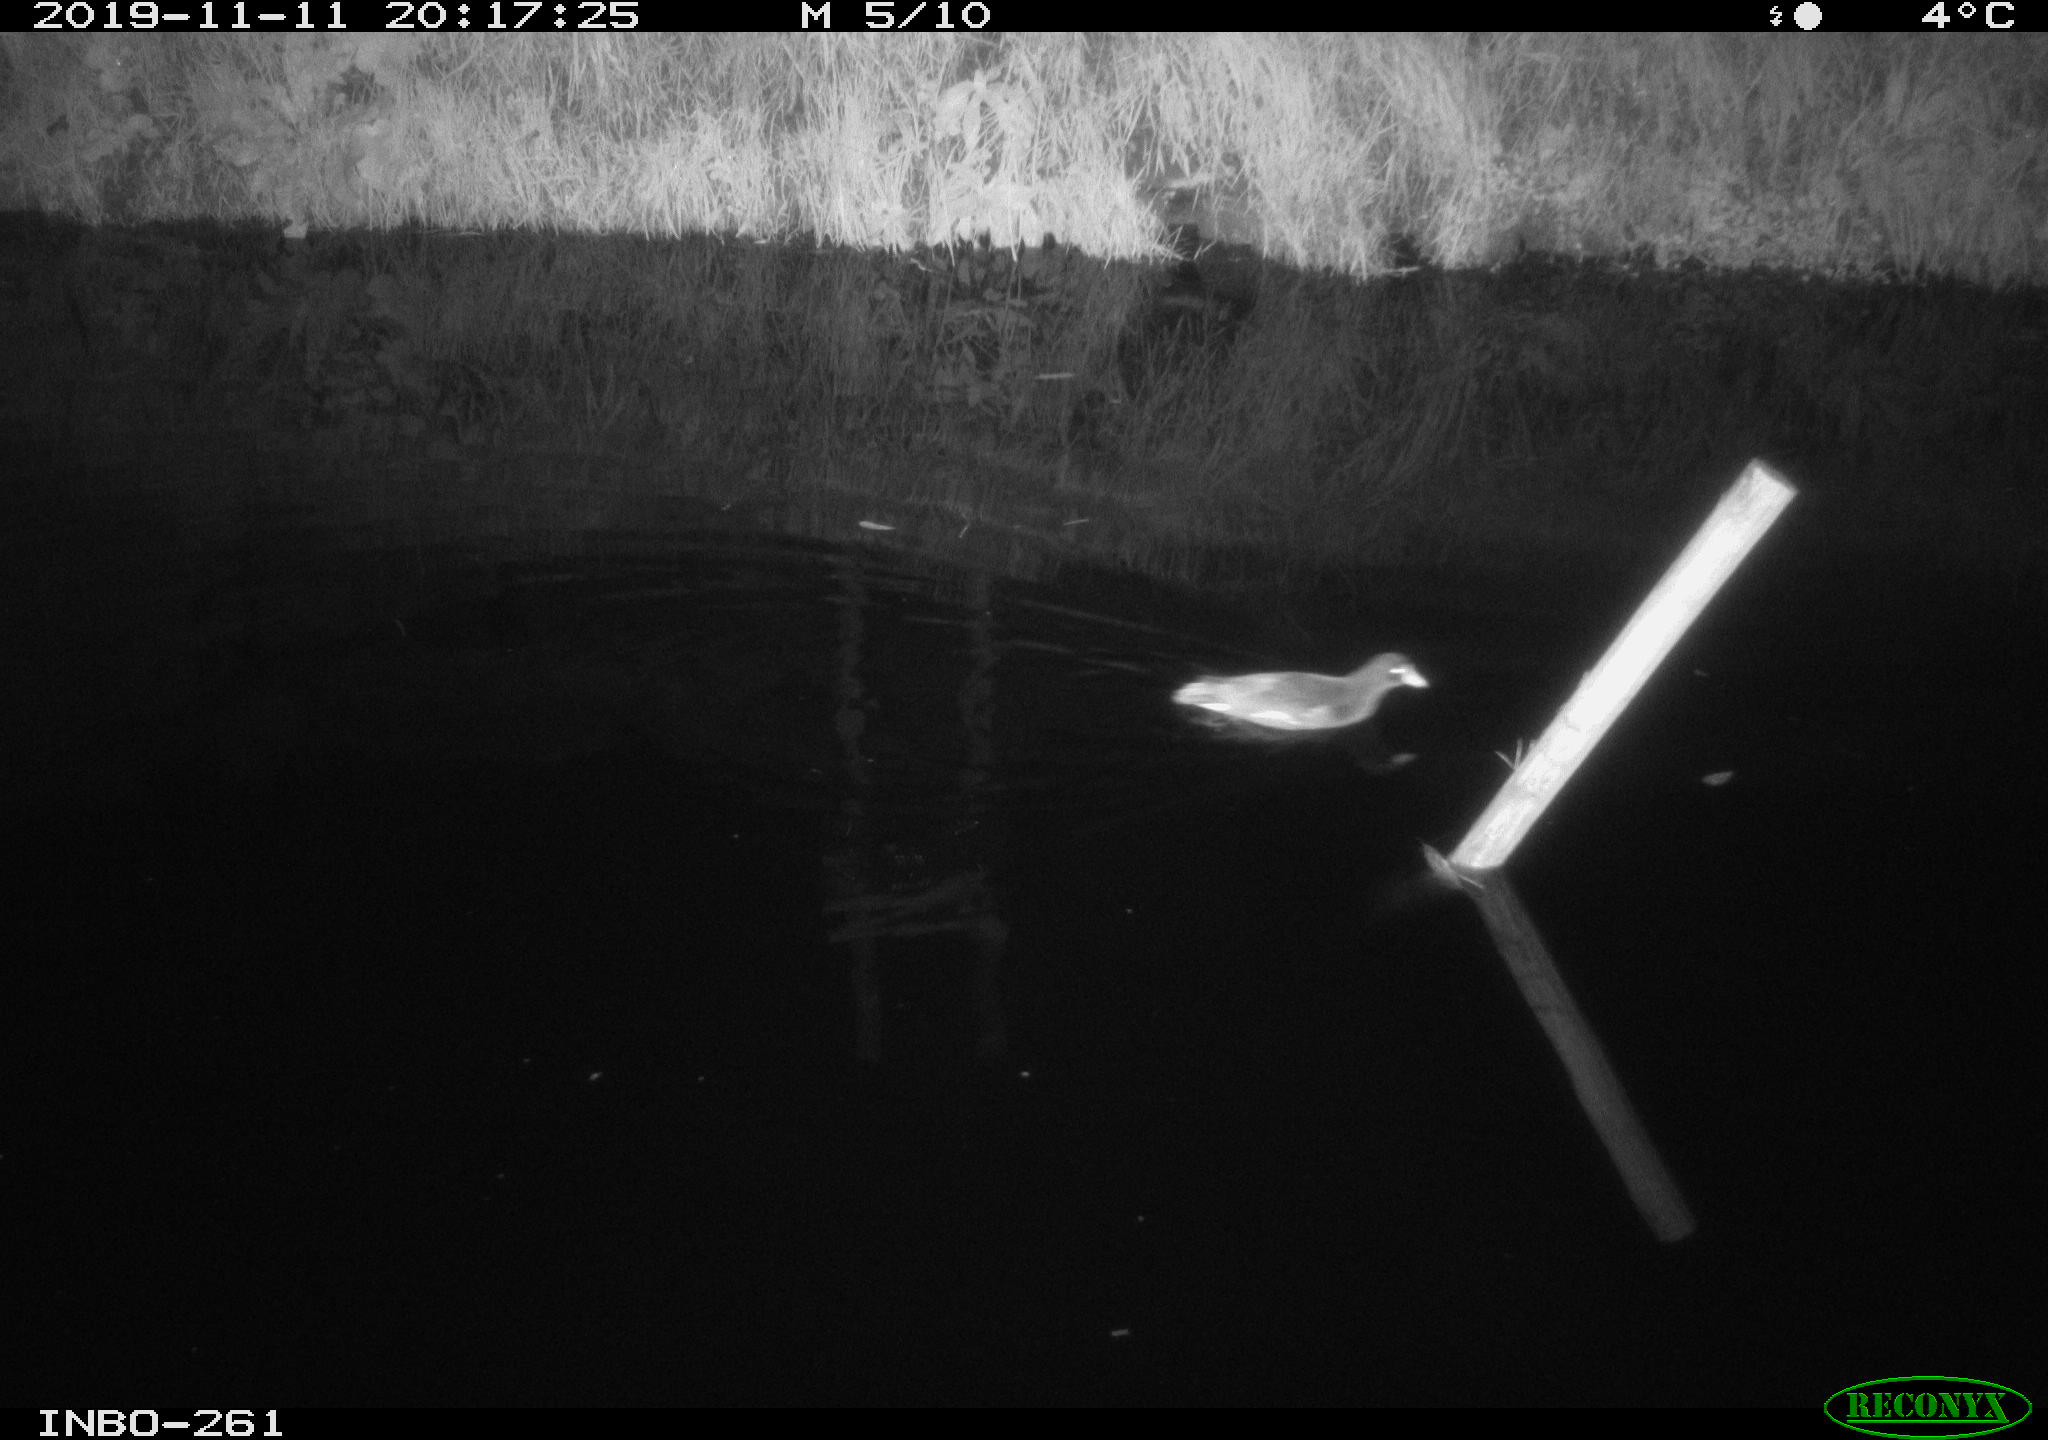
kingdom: Animalia
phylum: Chordata
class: Aves
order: Gruiformes
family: Rallidae
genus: Gallinula
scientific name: Gallinula chloropus
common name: Common moorhen
